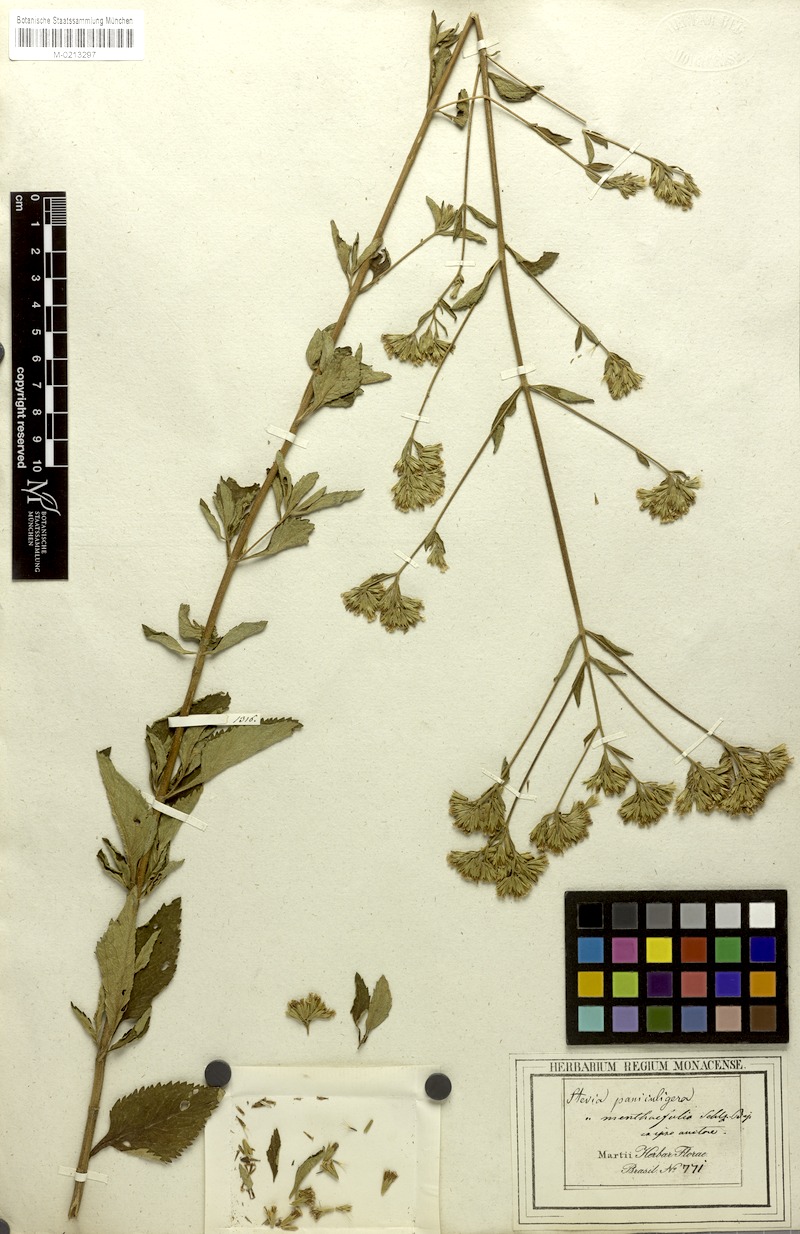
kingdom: Plantae
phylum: Tracheophyta
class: Magnoliopsida
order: Asterales
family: Asteraceae
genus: Stevia
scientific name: Stevia menthaefolia
